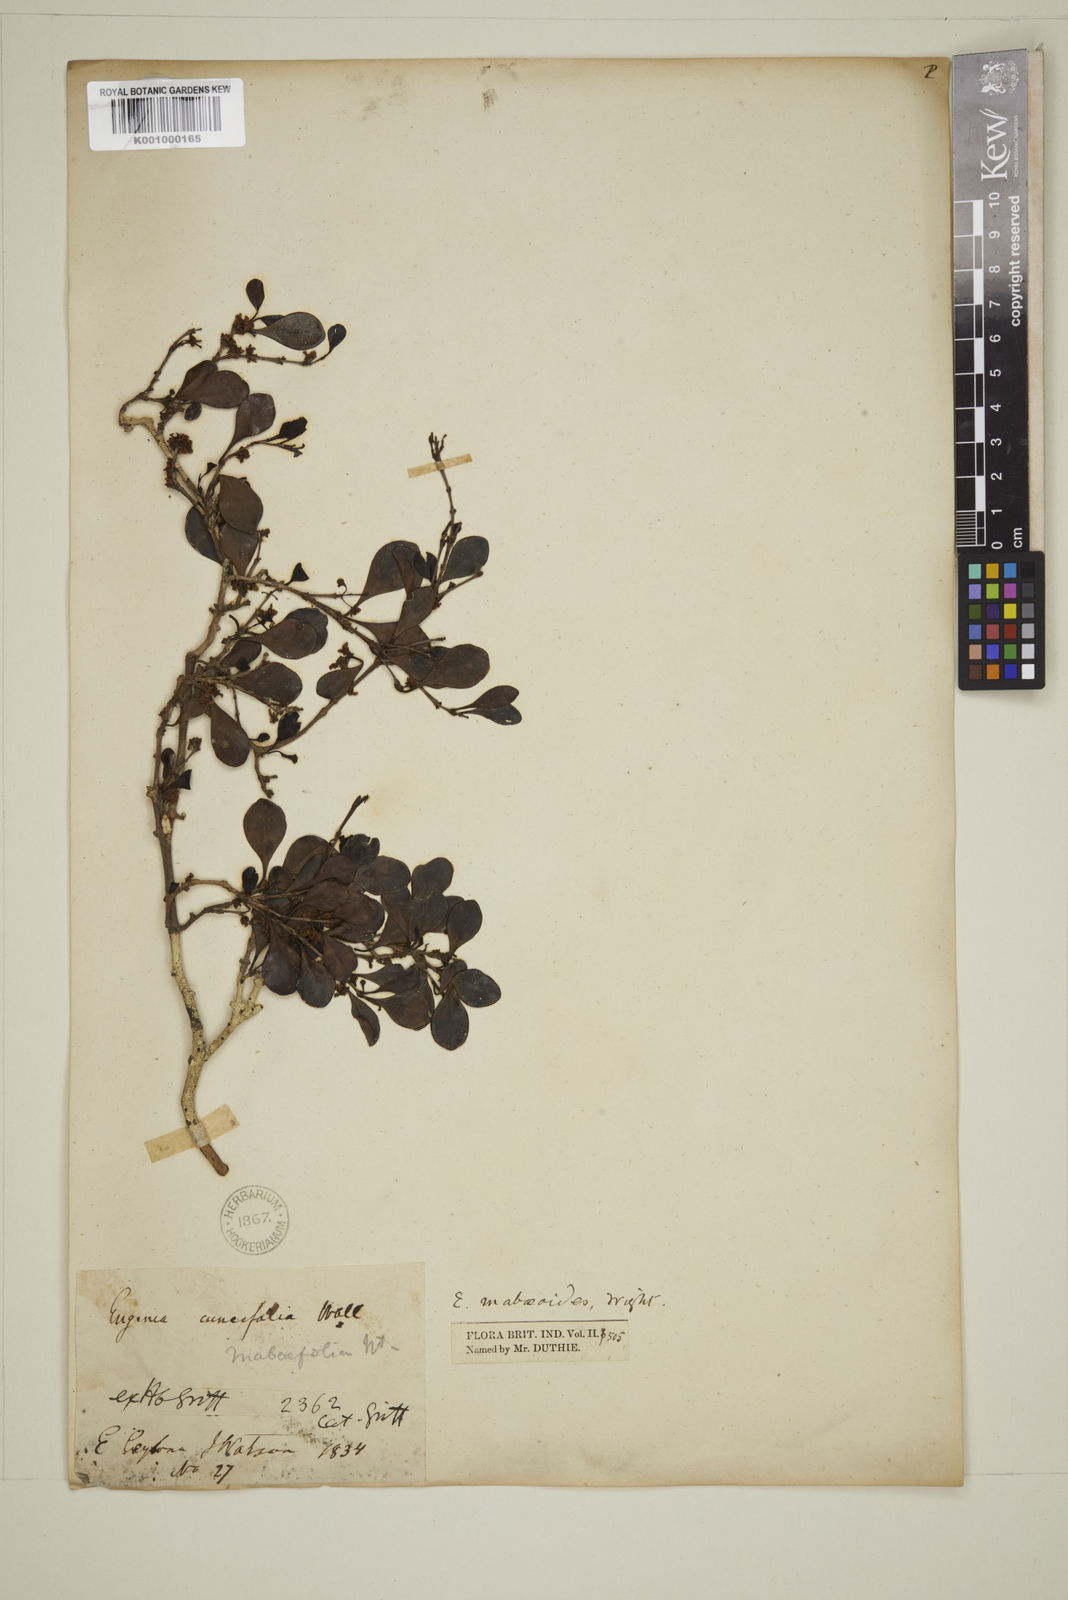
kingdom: Plantae
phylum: Tracheophyta
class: Magnoliopsida
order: Myrtales
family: Myrtaceae
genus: Eugenia
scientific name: Eugenia mabaeoides
